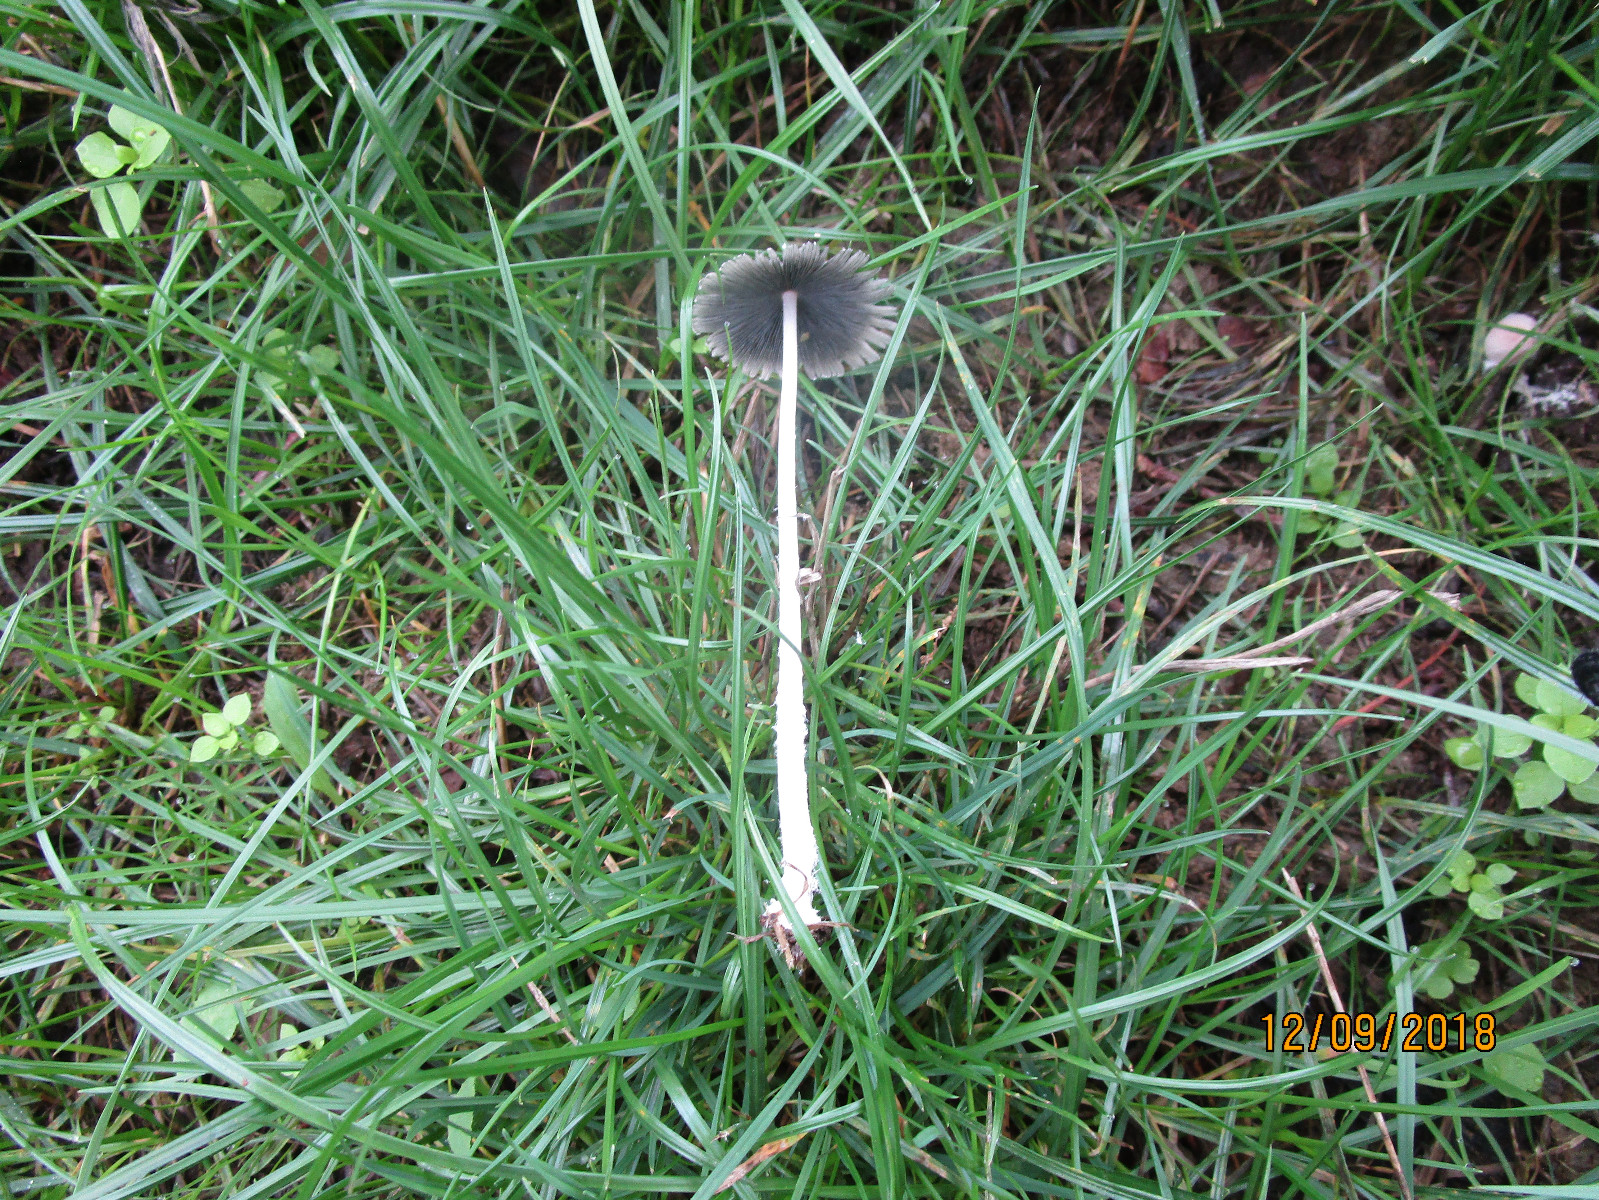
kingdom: Fungi
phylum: Basidiomycota
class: Agaricomycetes
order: Agaricales
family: Psathyrellaceae
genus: Coprinopsis
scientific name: Coprinopsis
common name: blækhat
